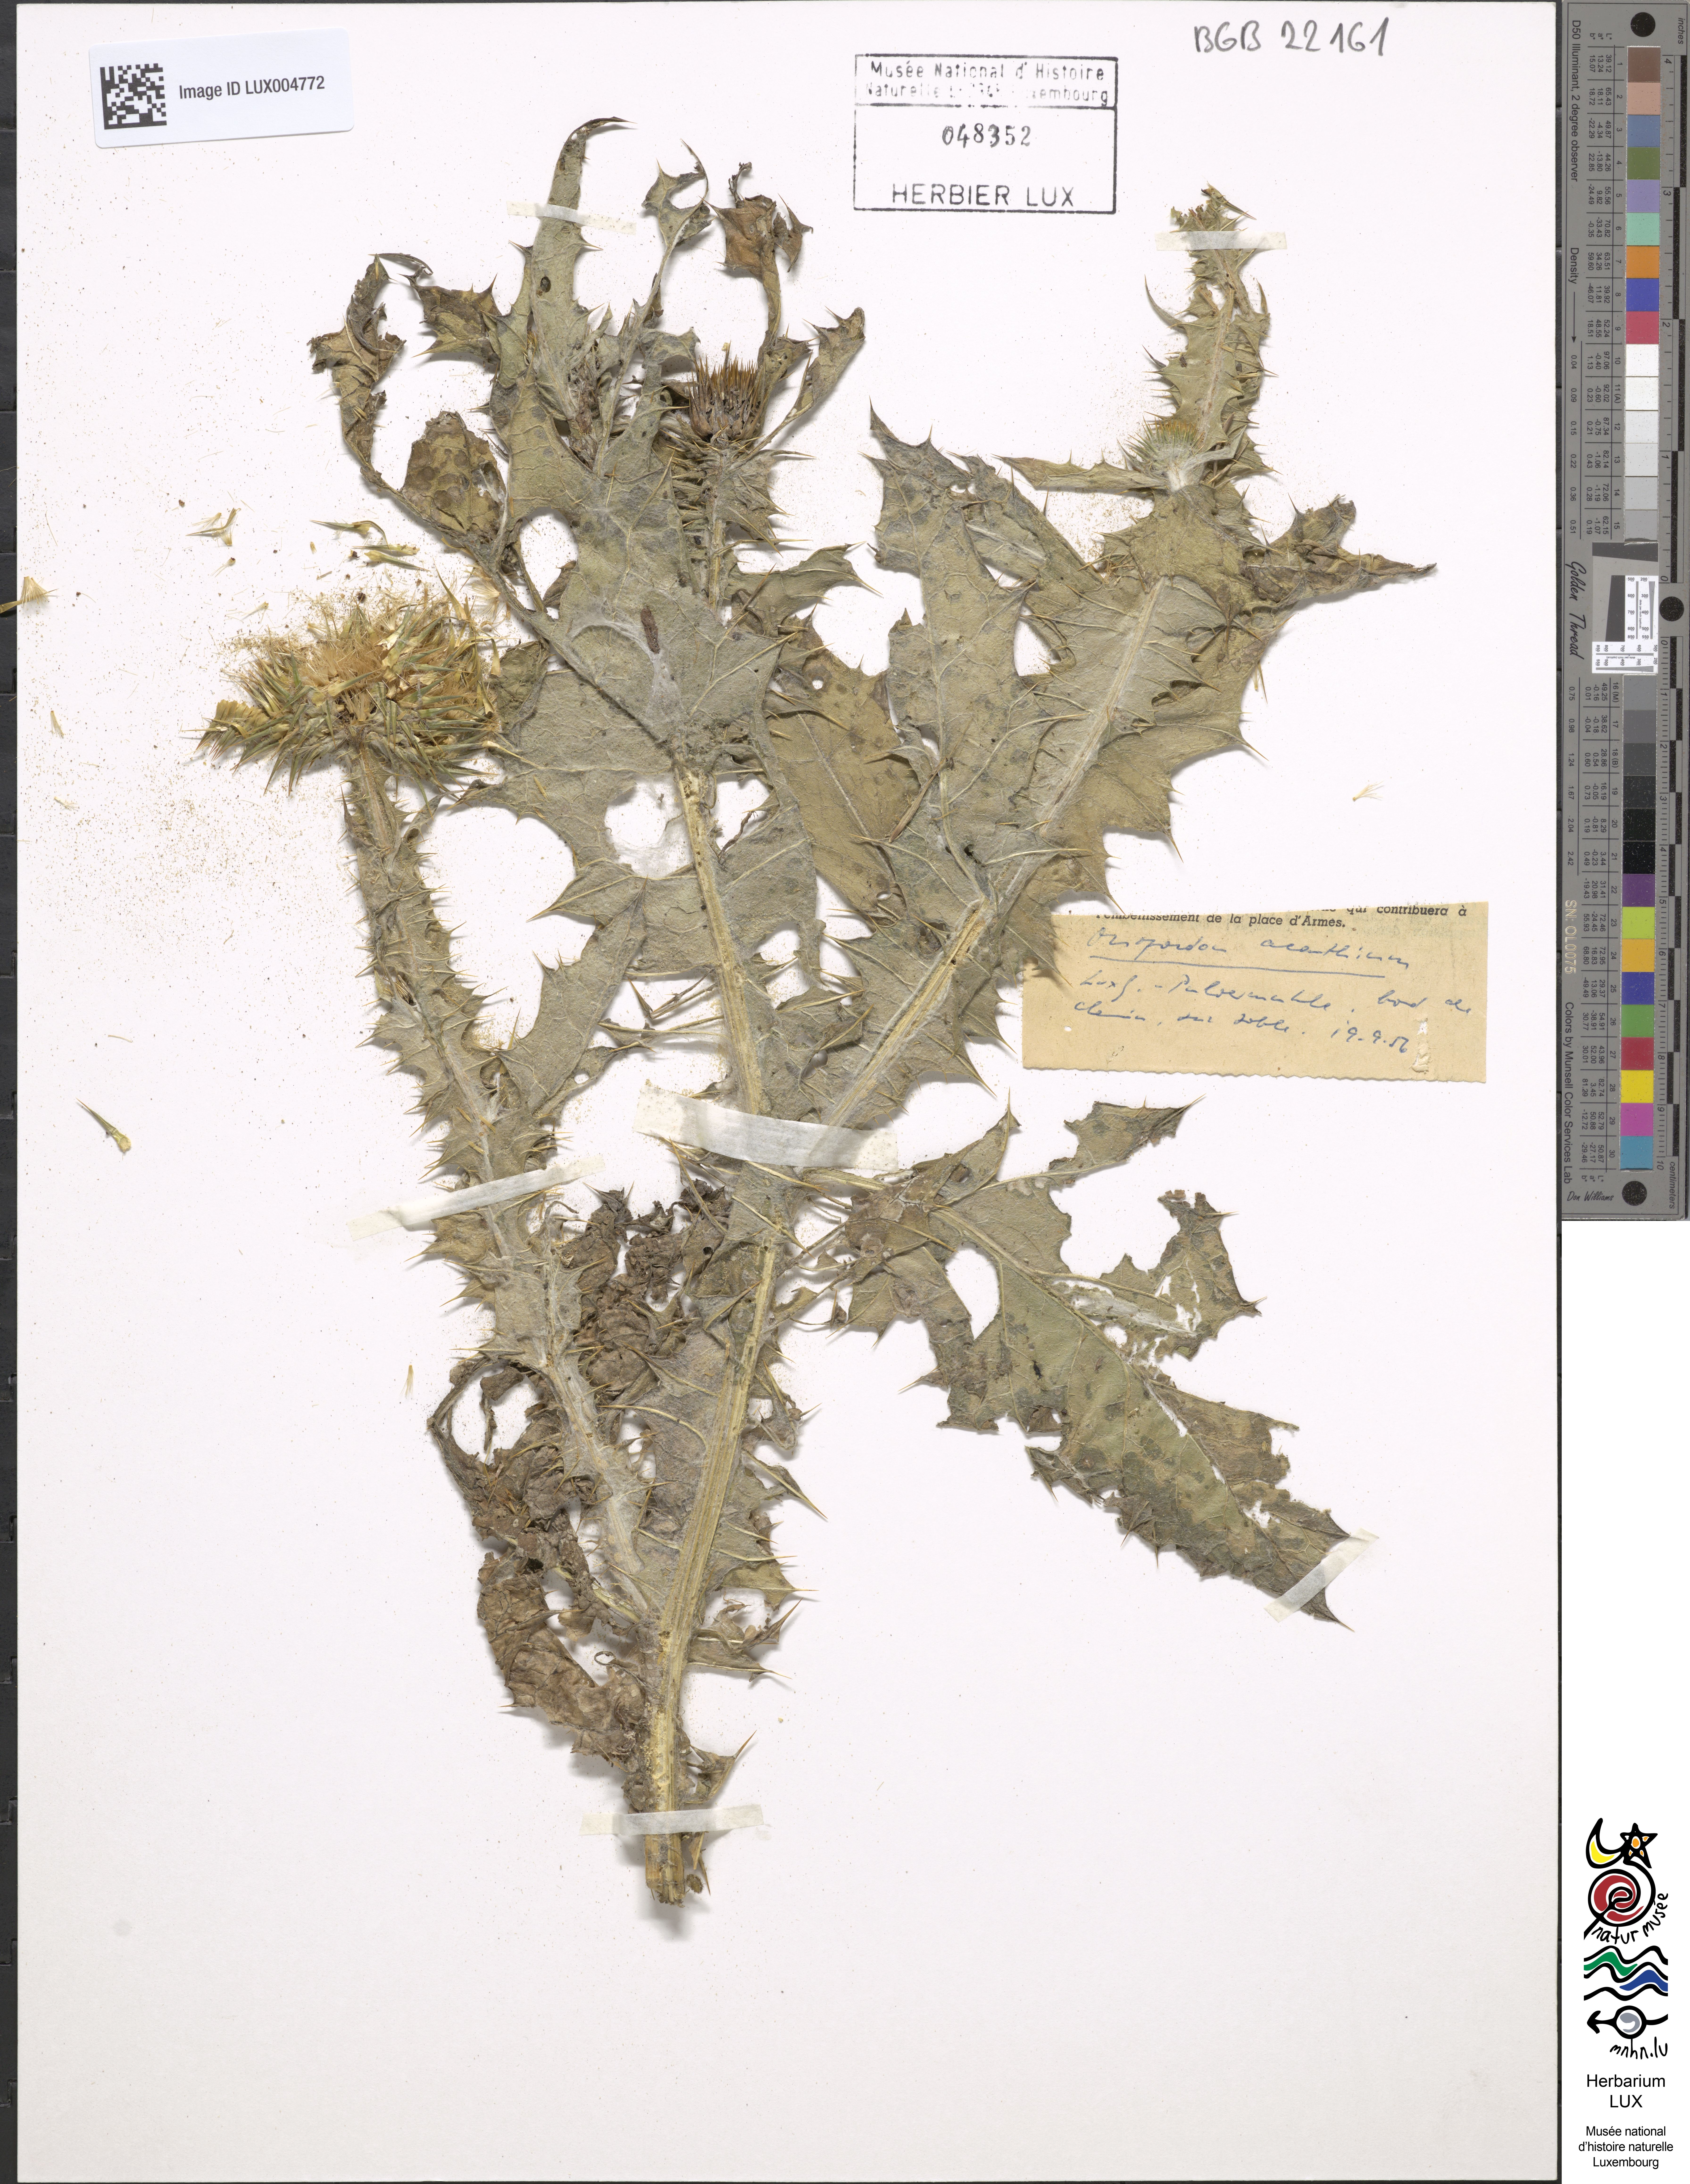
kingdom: Plantae
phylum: Tracheophyta
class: Magnoliopsida
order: Asterales
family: Asteraceae
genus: Onopordum
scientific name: Onopordum acanthium
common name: Scotch thistle
